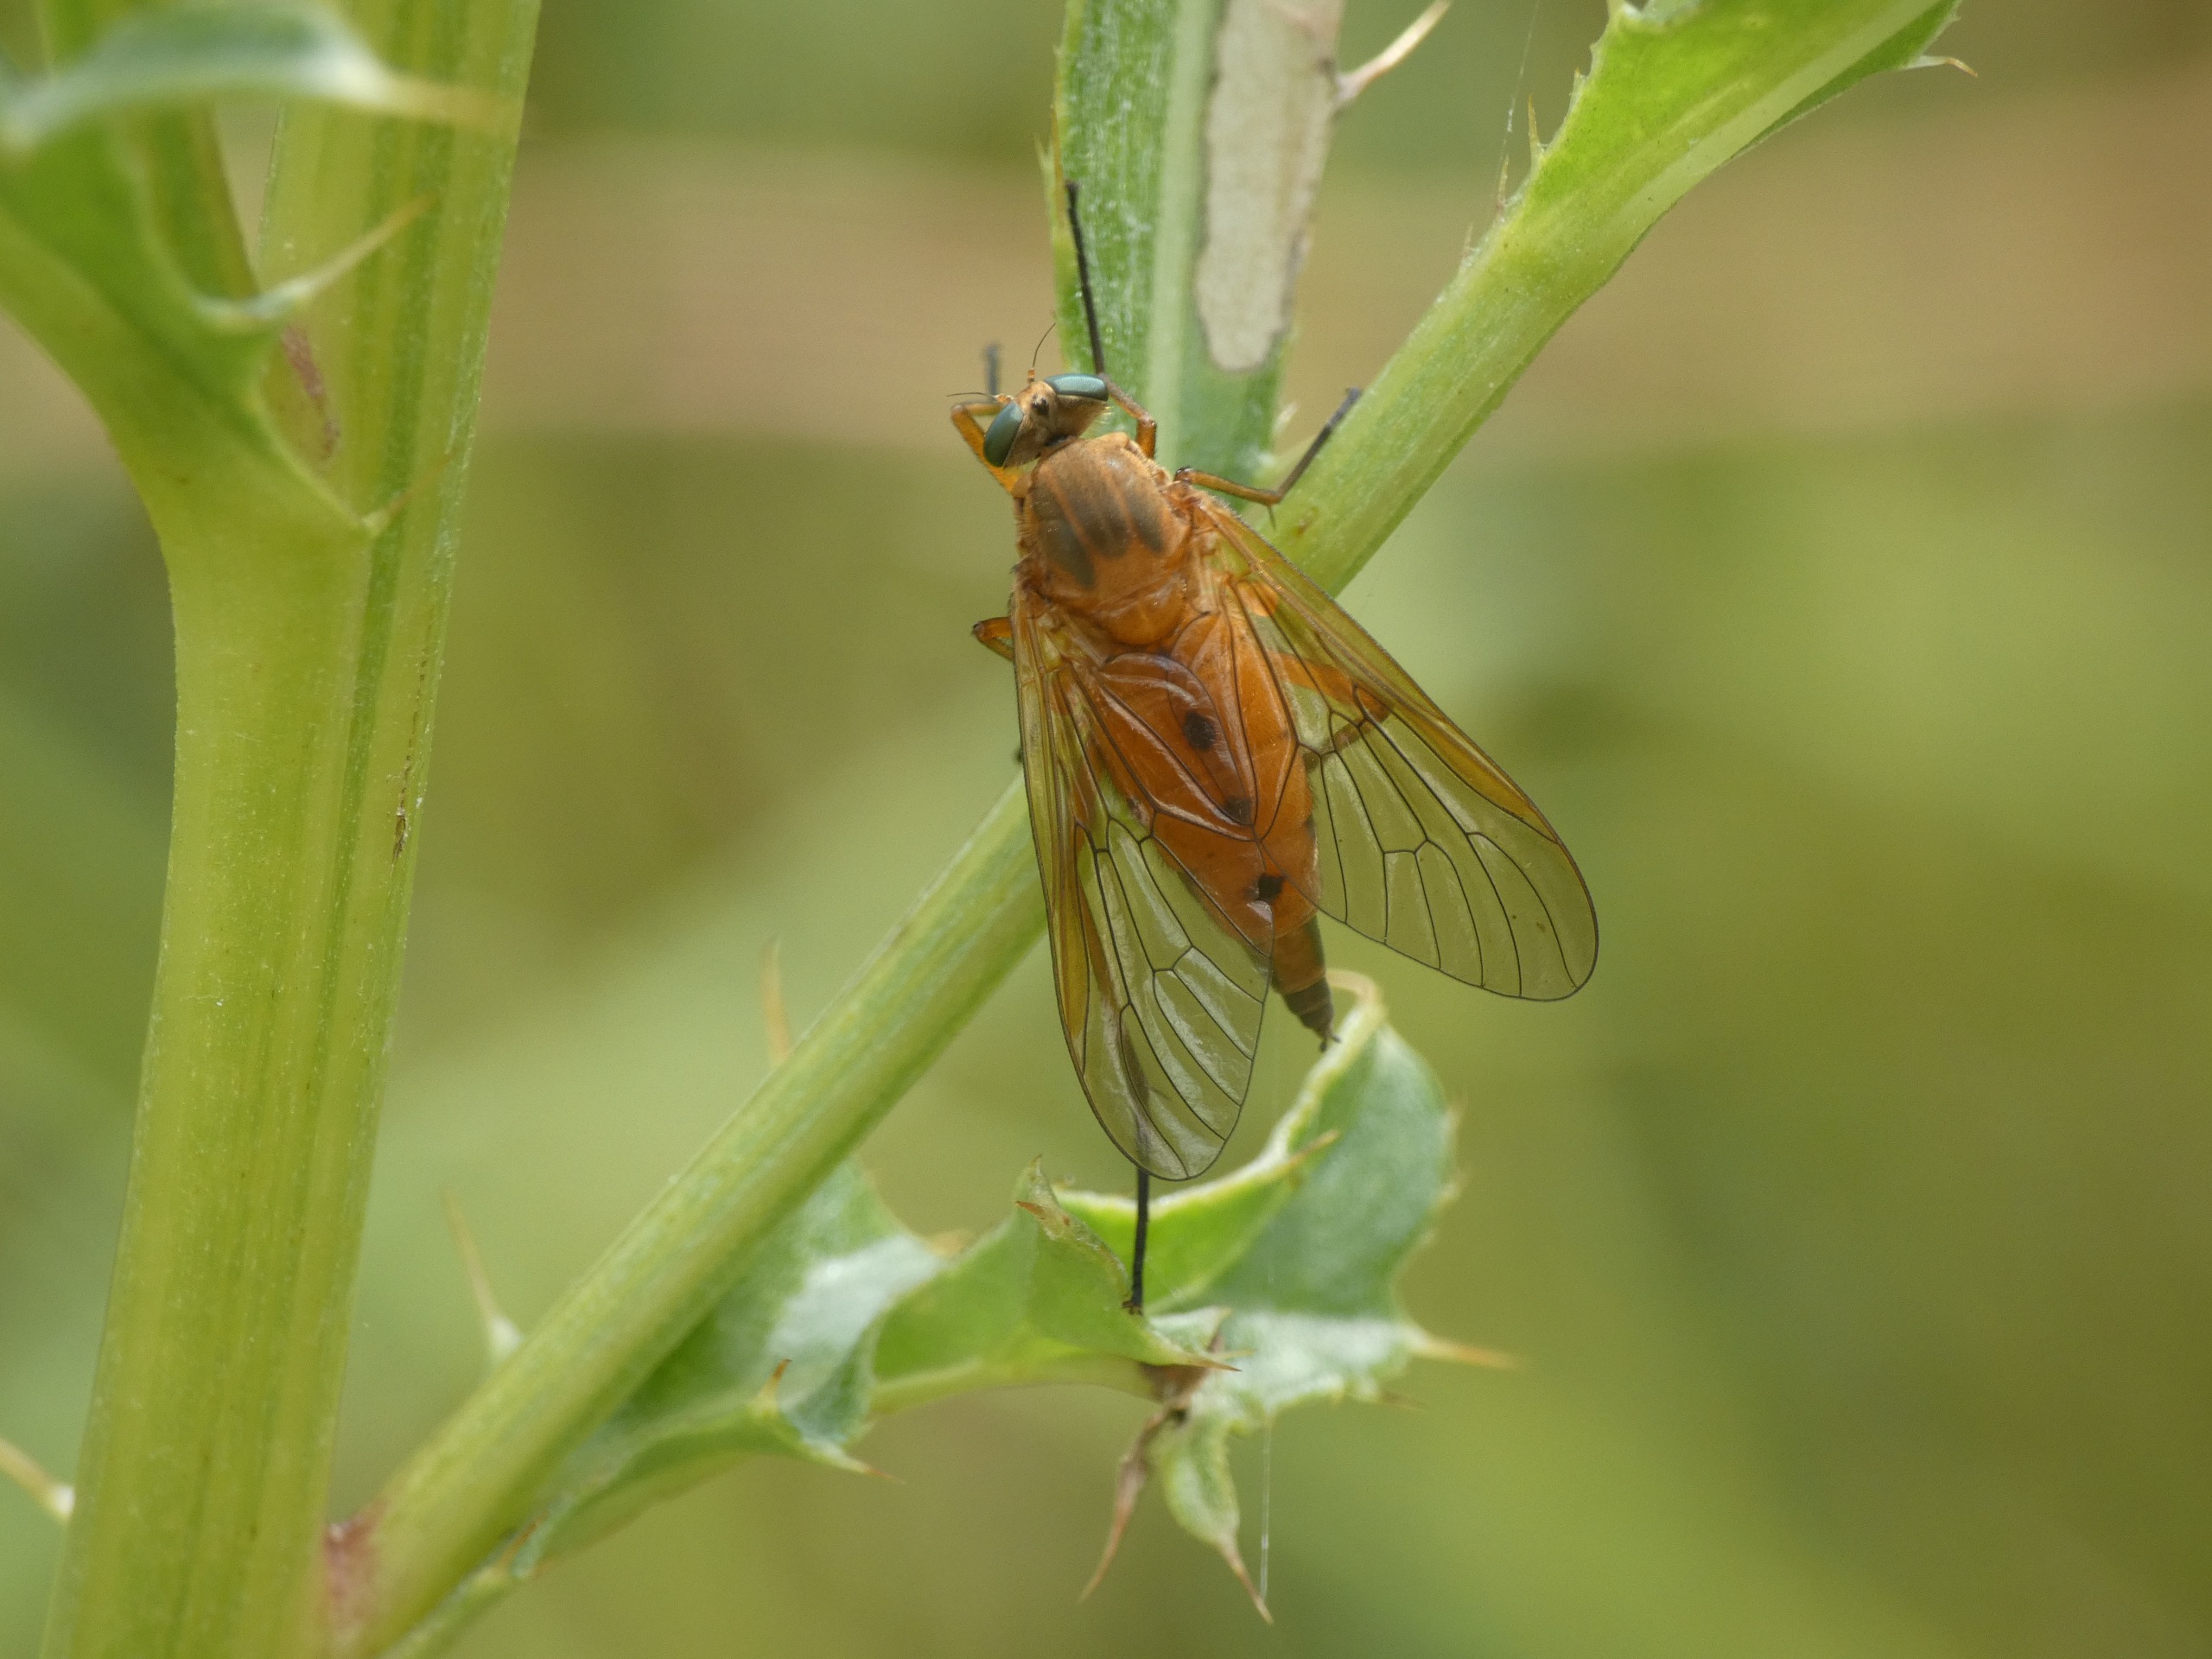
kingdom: Animalia
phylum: Arthropoda
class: Insecta
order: Diptera
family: Rhagionidae
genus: Rhagio
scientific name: Rhagio tringaria
